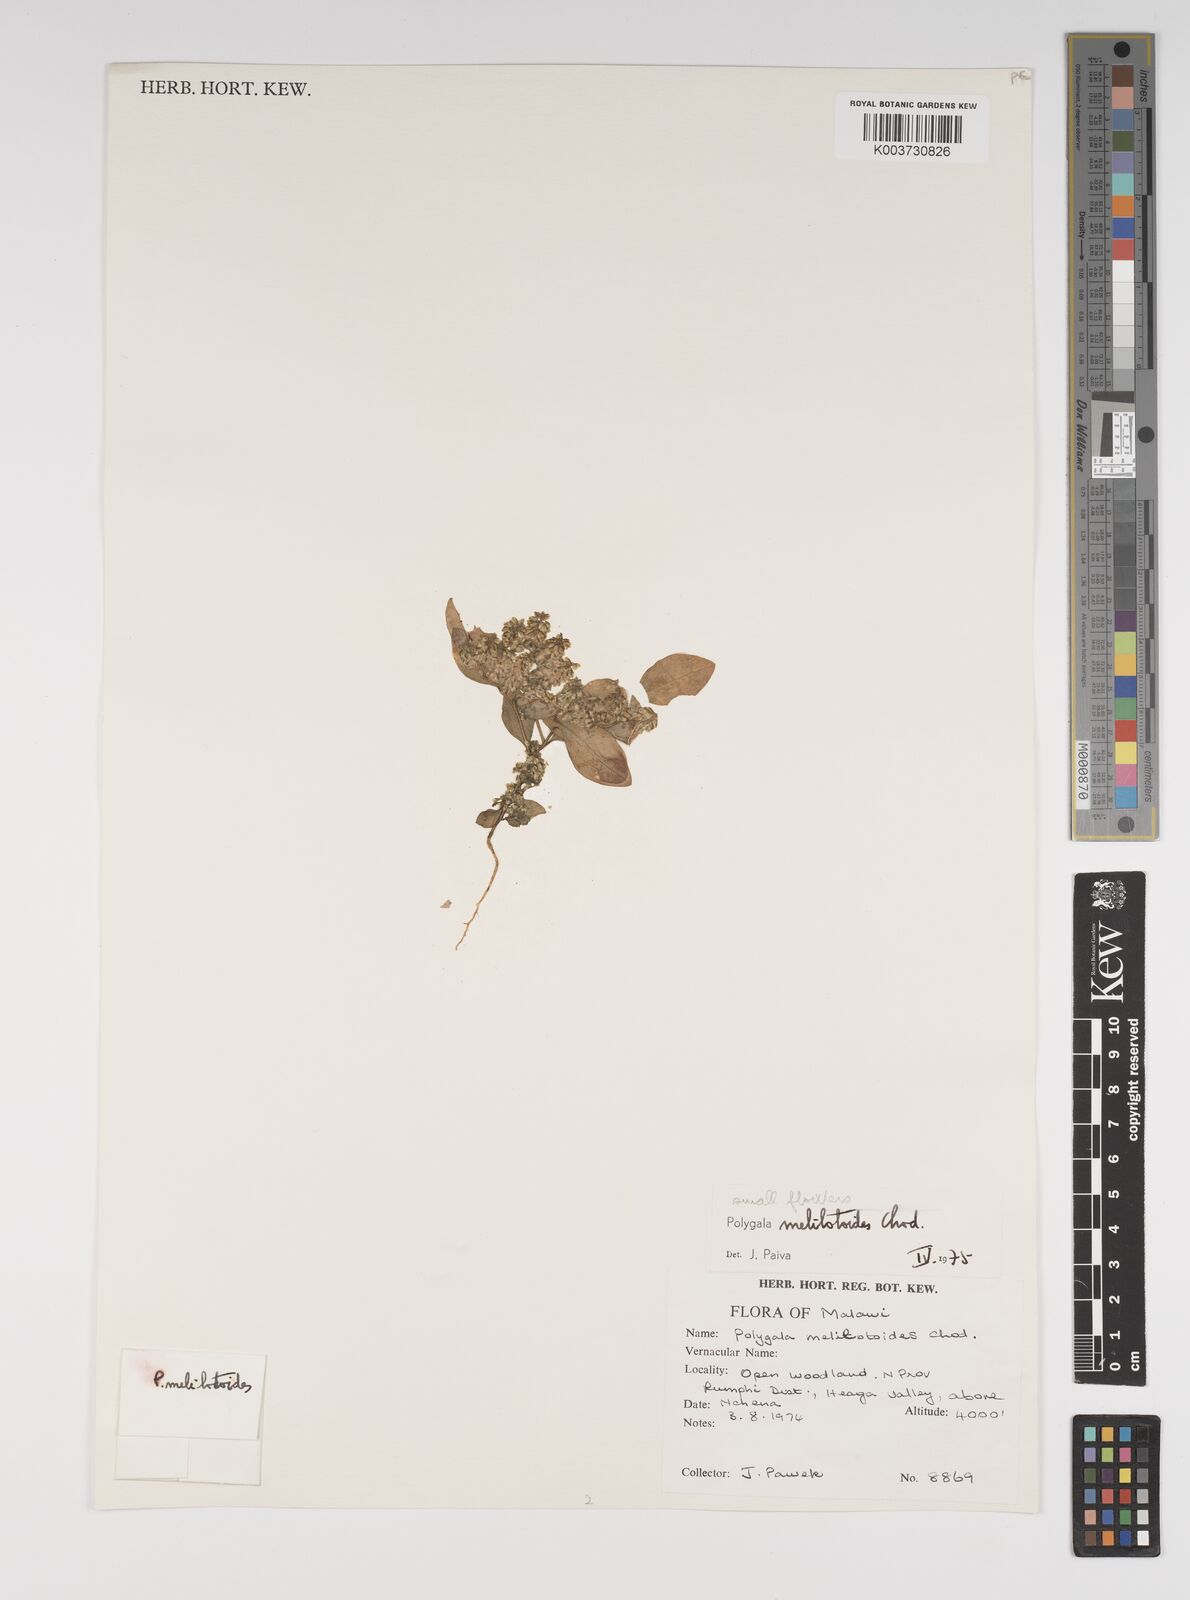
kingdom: Plantae
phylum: Tracheophyta
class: Magnoliopsida
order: Fabales
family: Polygalaceae
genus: Polygala
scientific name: Polygala melilotoides
